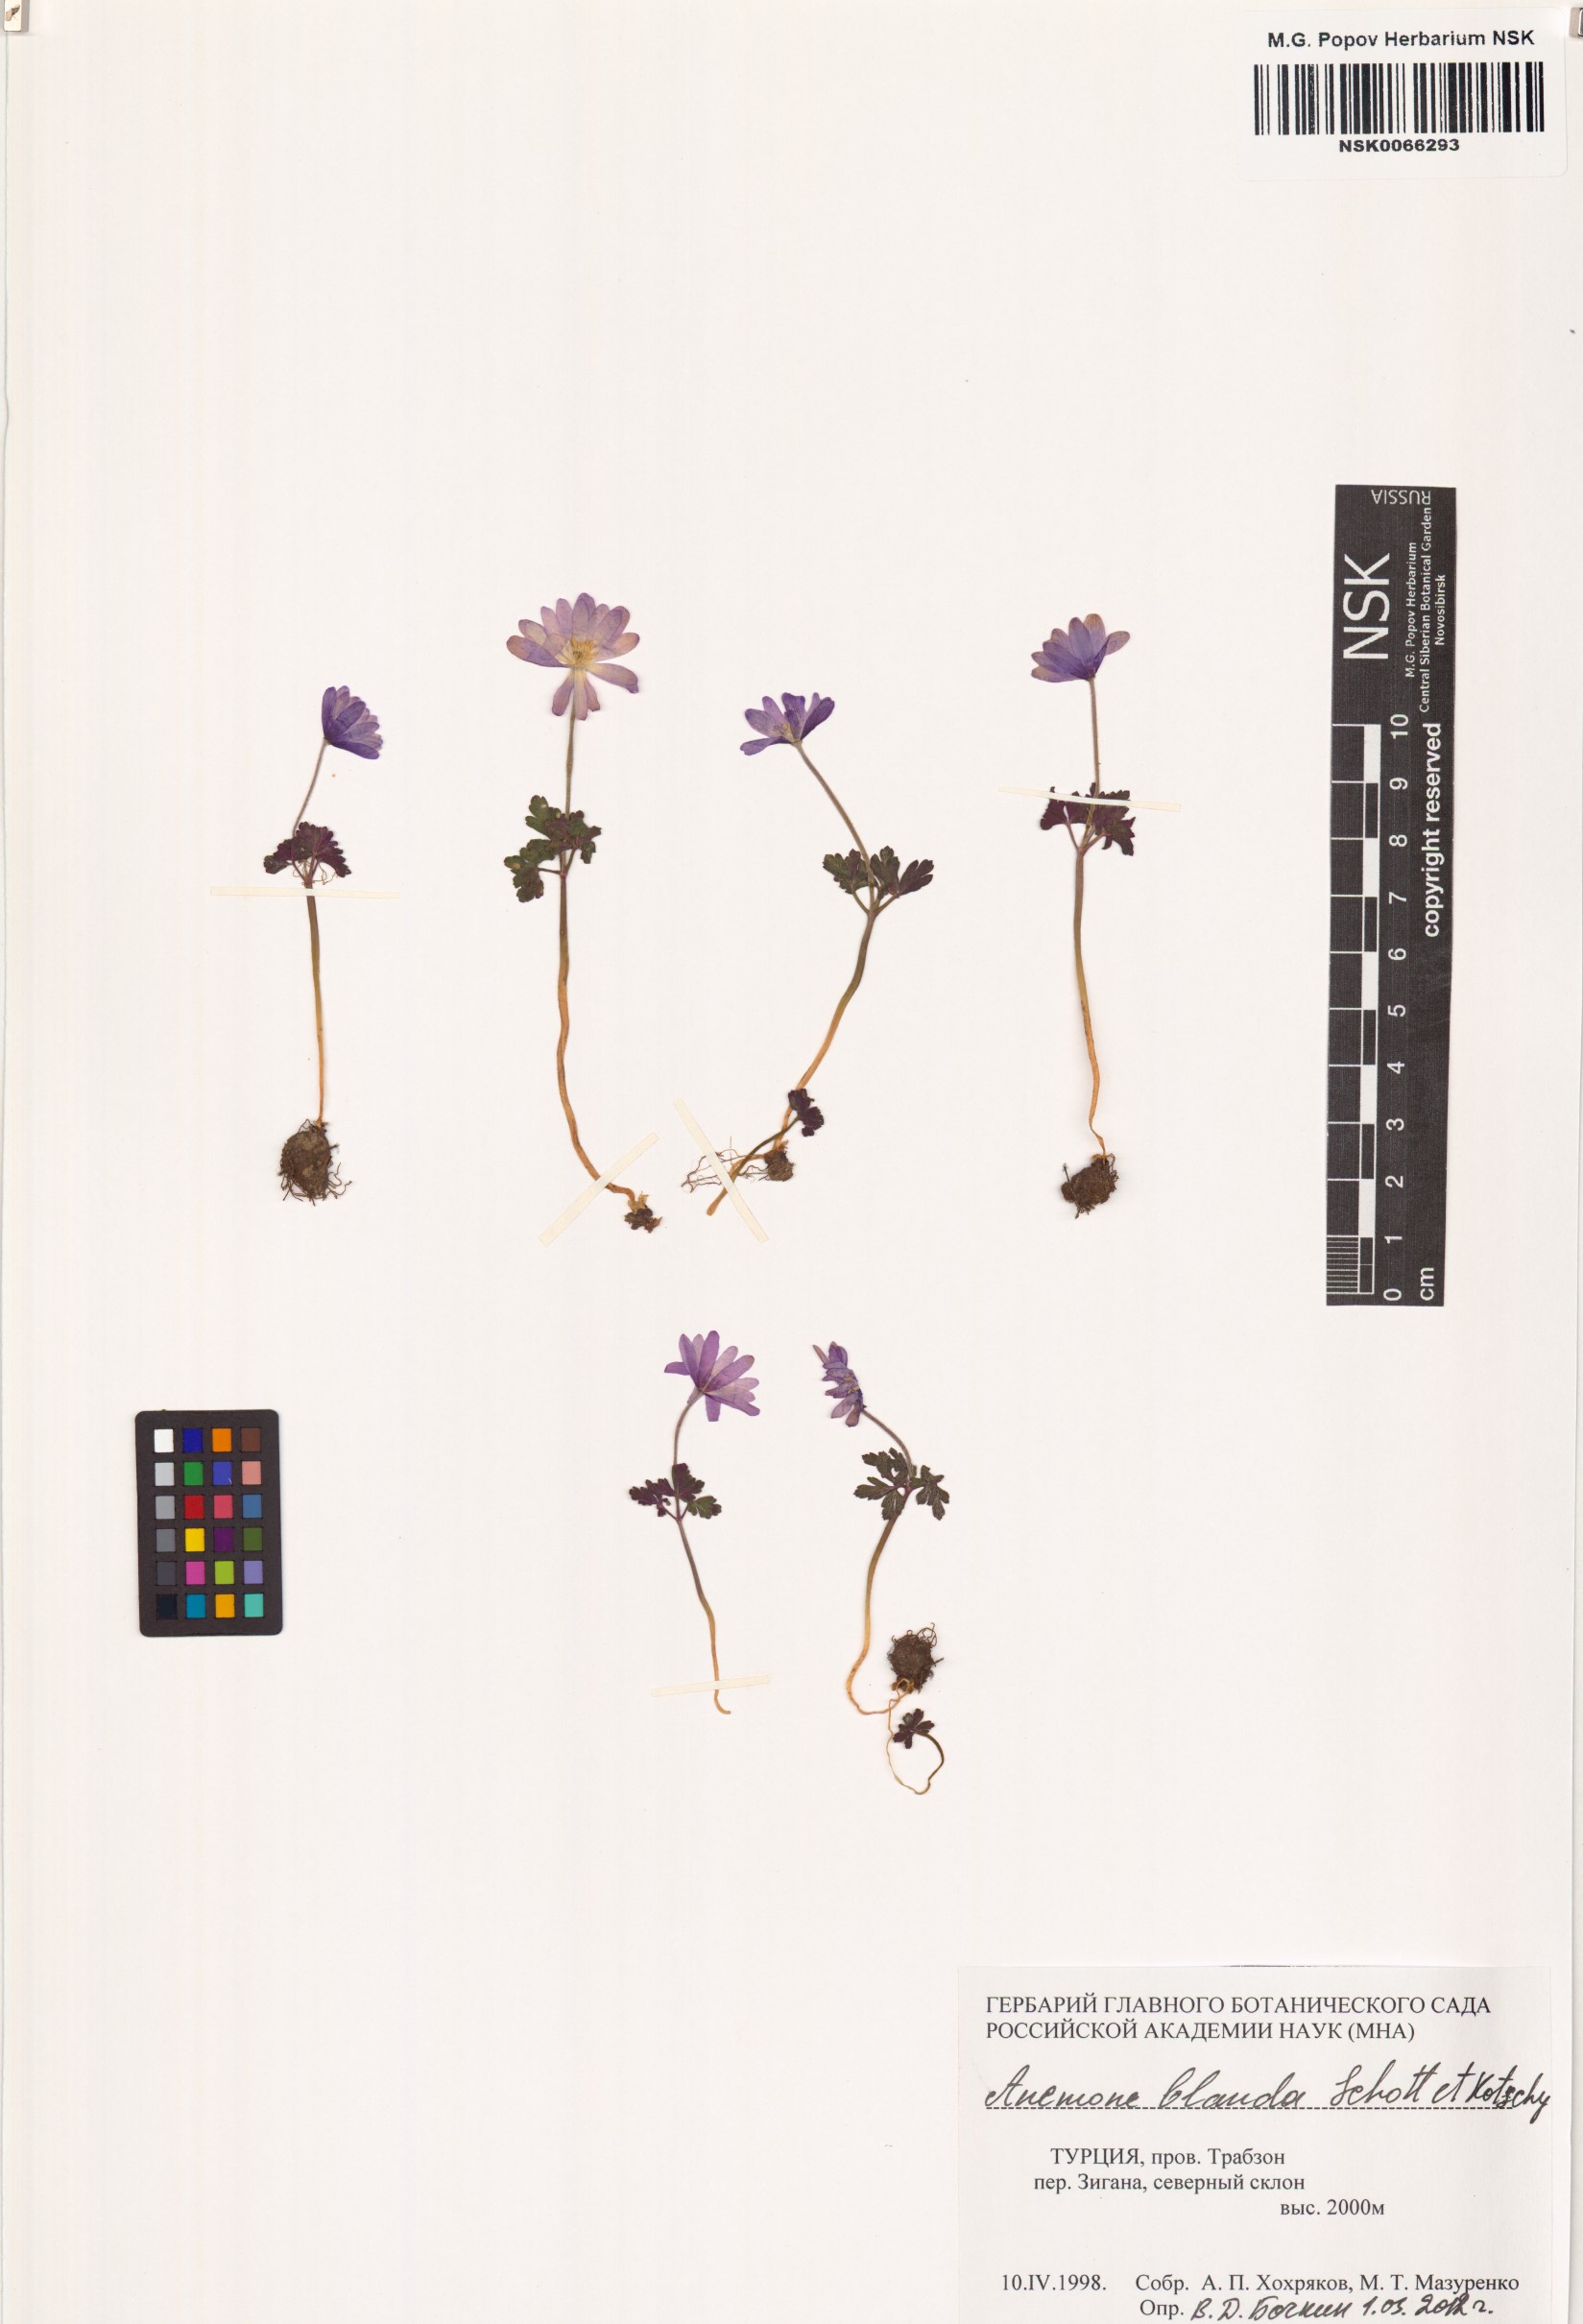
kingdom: Plantae
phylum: Tracheophyta
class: Magnoliopsida
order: Ranunculales
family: Ranunculaceae
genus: Anemone
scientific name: Anemone blanda
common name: Balkan anemone
